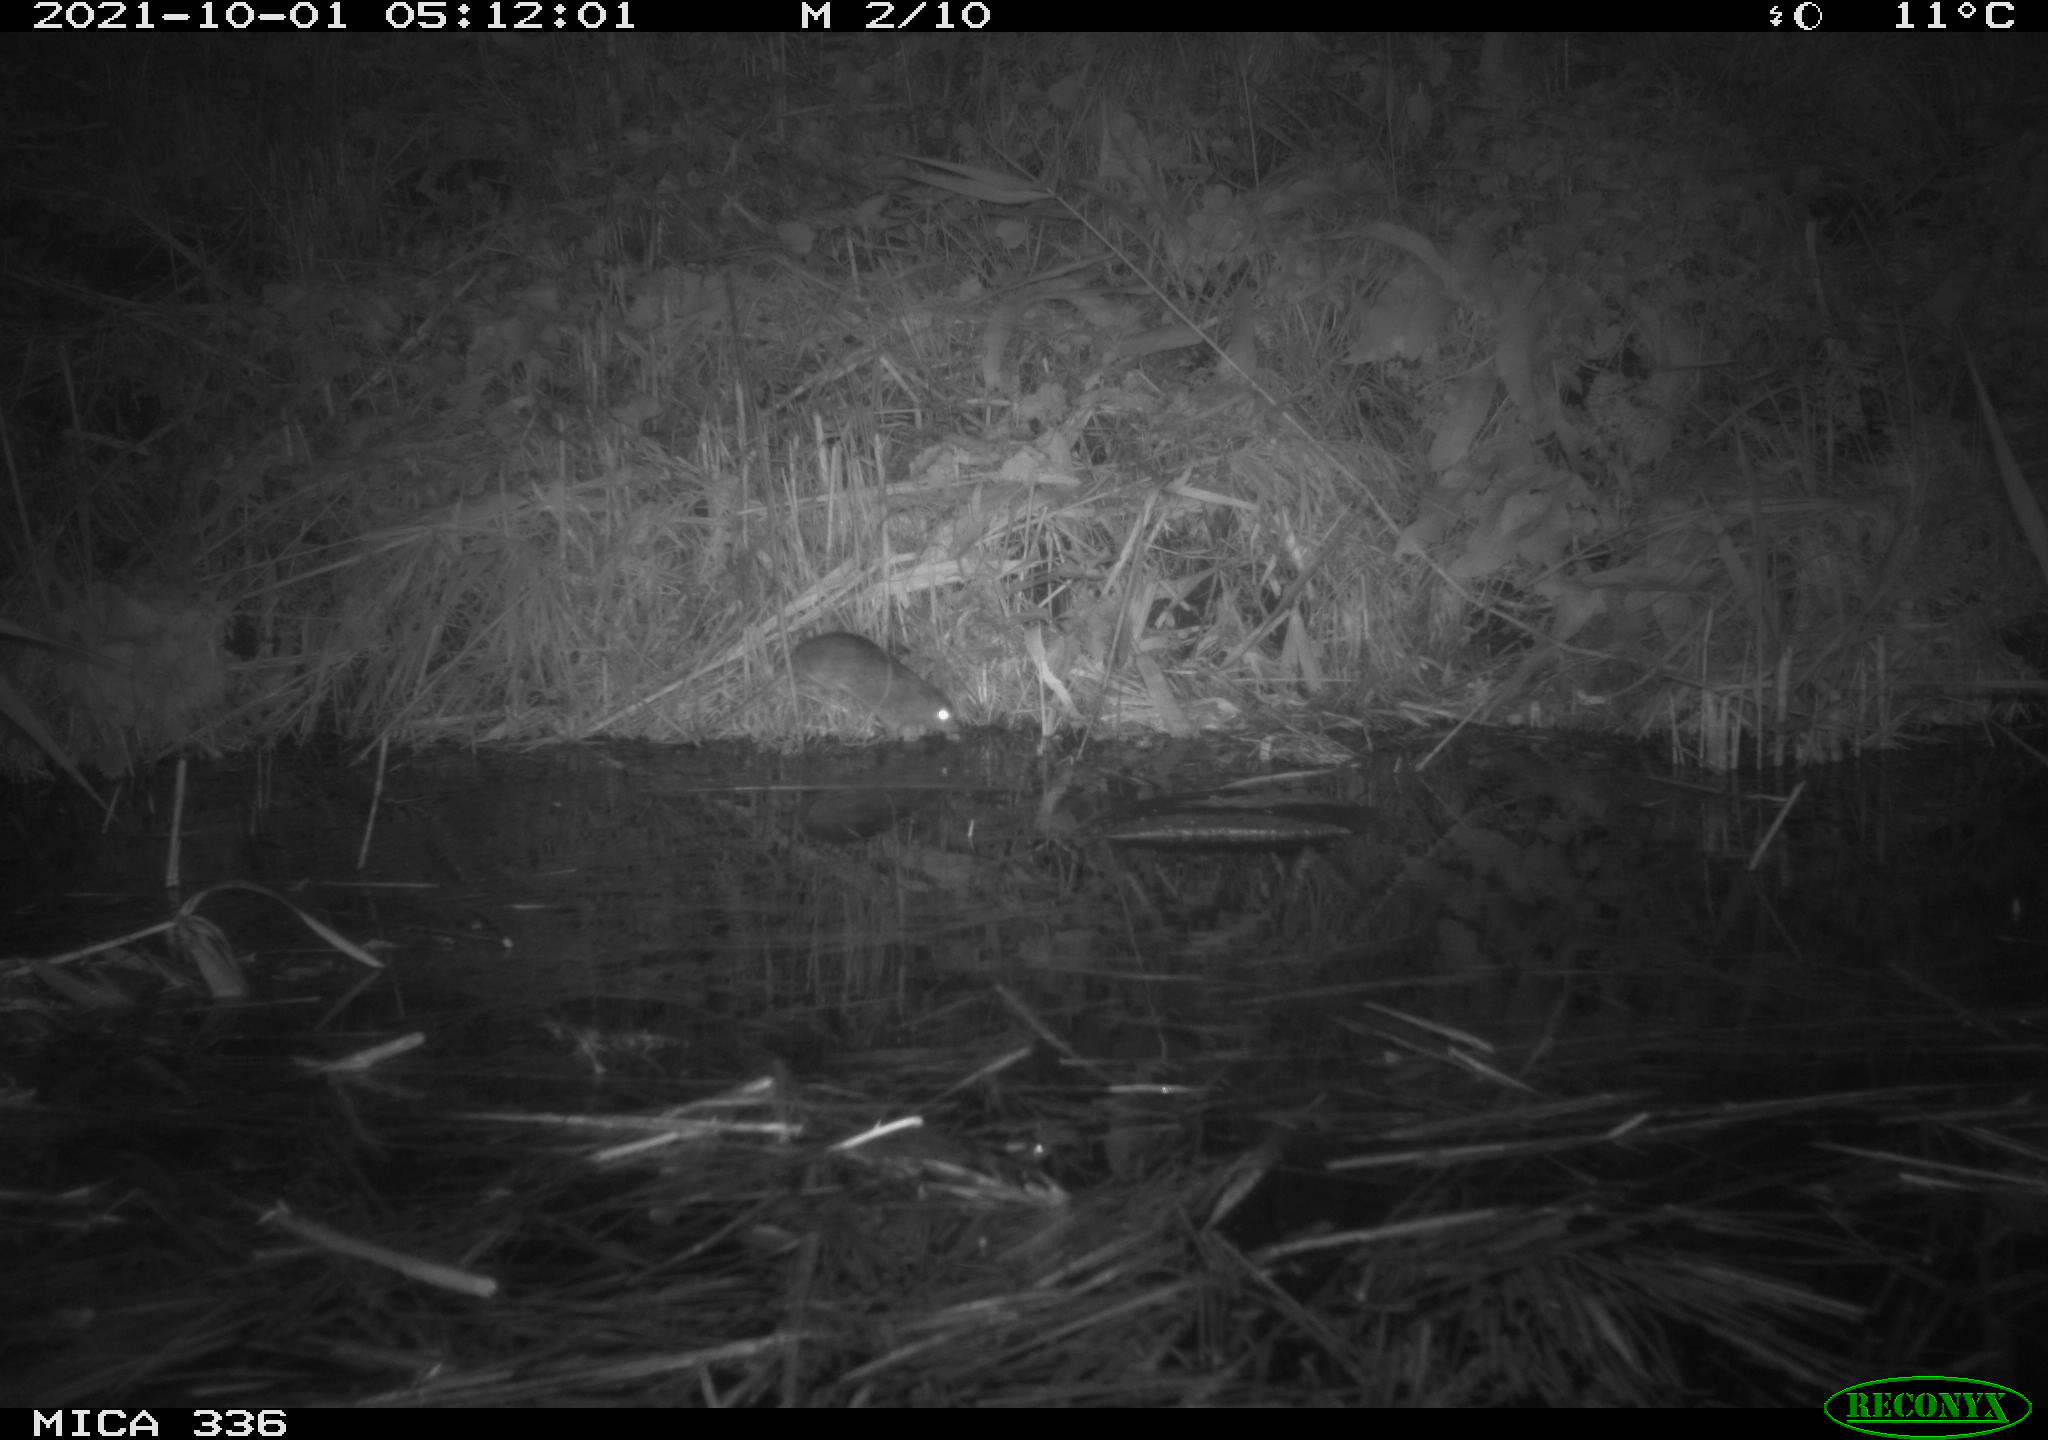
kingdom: Animalia
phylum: Chordata
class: Mammalia
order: Rodentia
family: Muridae
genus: Rattus
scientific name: Rattus norvegicus
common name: Brown rat
